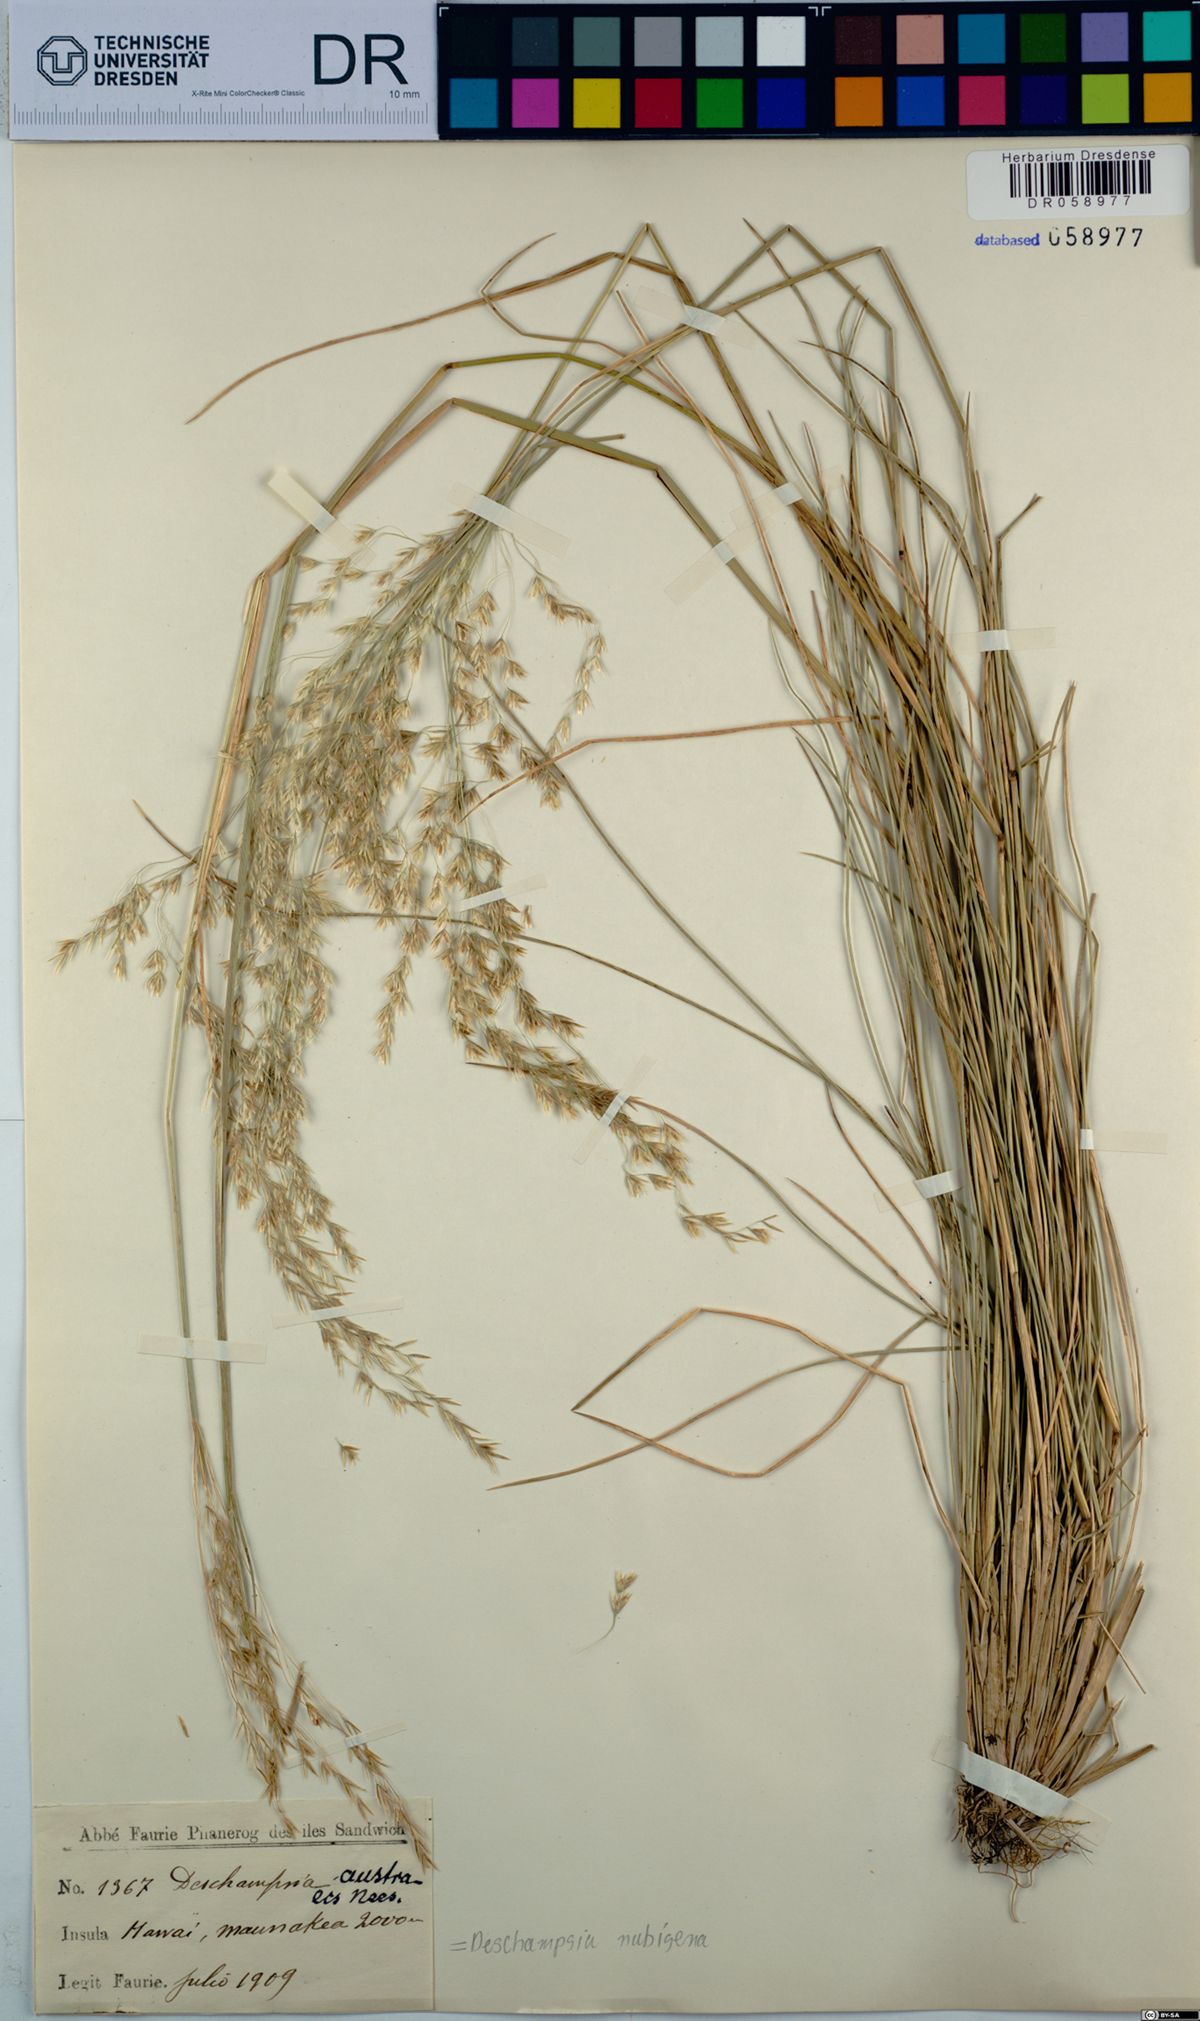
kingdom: Plantae
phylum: Tracheophyta
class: Liliopsida
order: Poales
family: Poaceae
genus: Deschampsia
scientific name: Deschampsia nubigena
